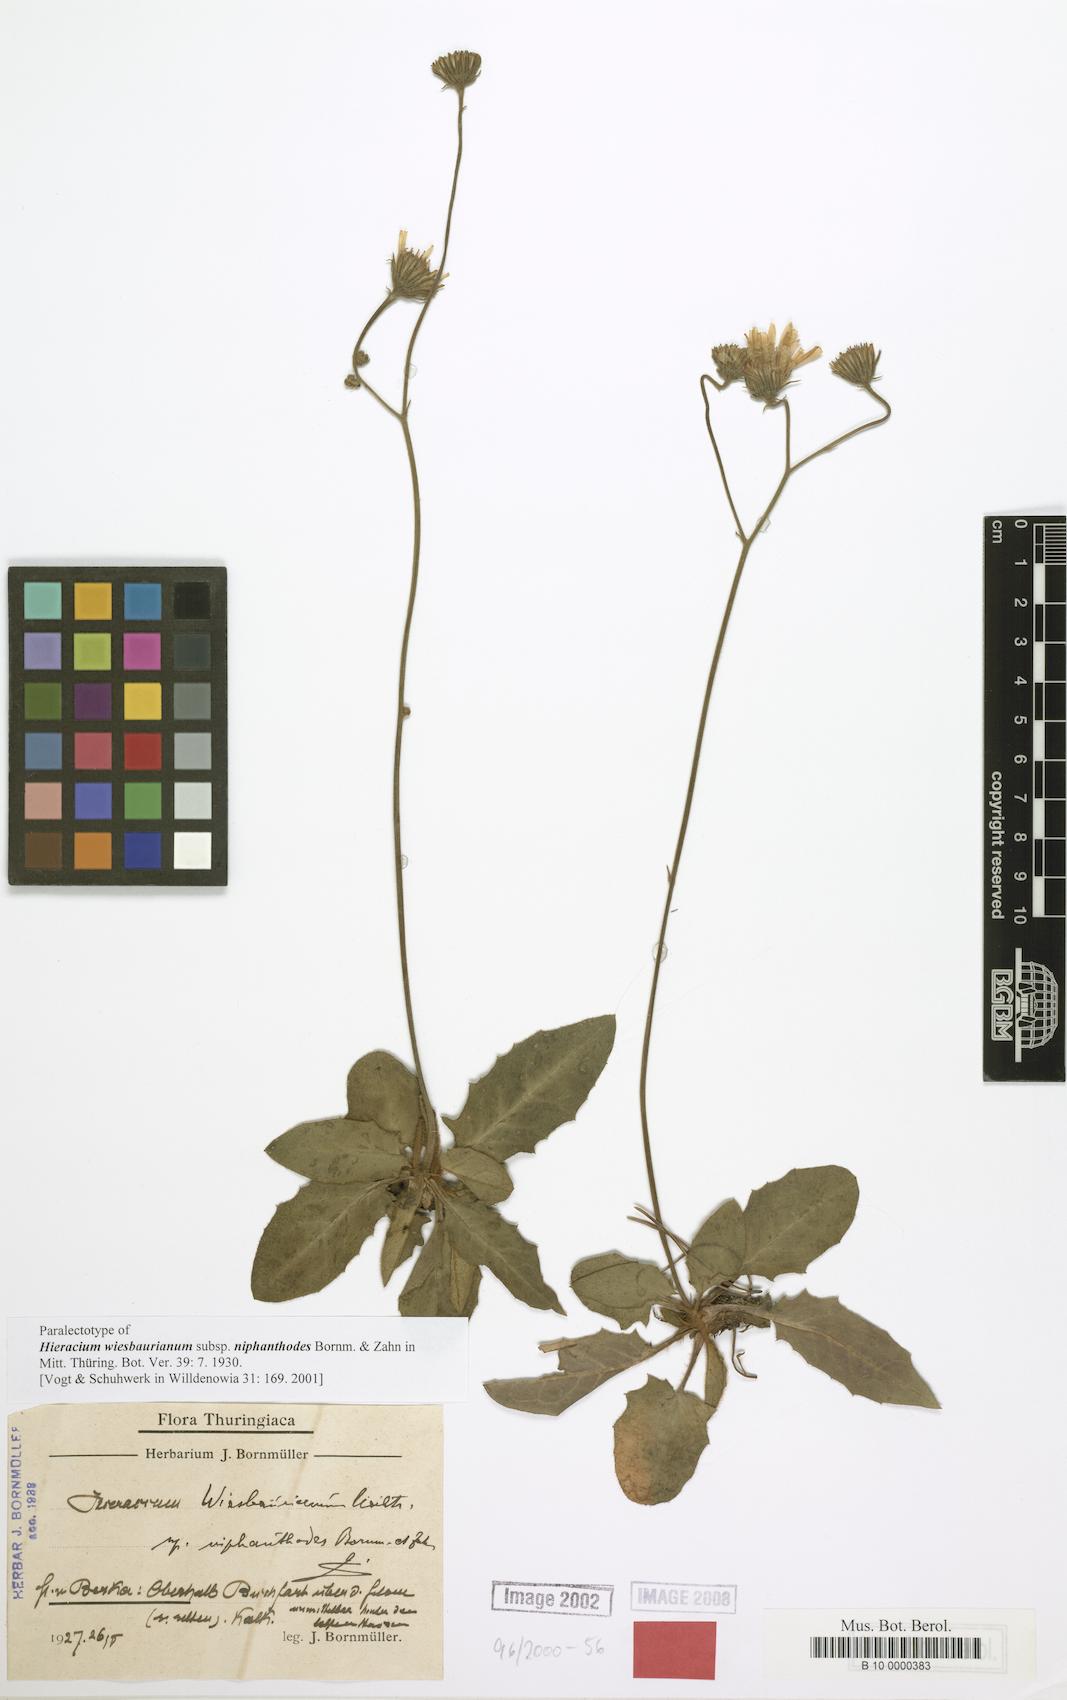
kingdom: Plantae
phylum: Tracheophyta
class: Magnoliopsida
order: Asterales
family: Asteraceae
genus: Hieracium
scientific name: Hieracium hypochoeroides
